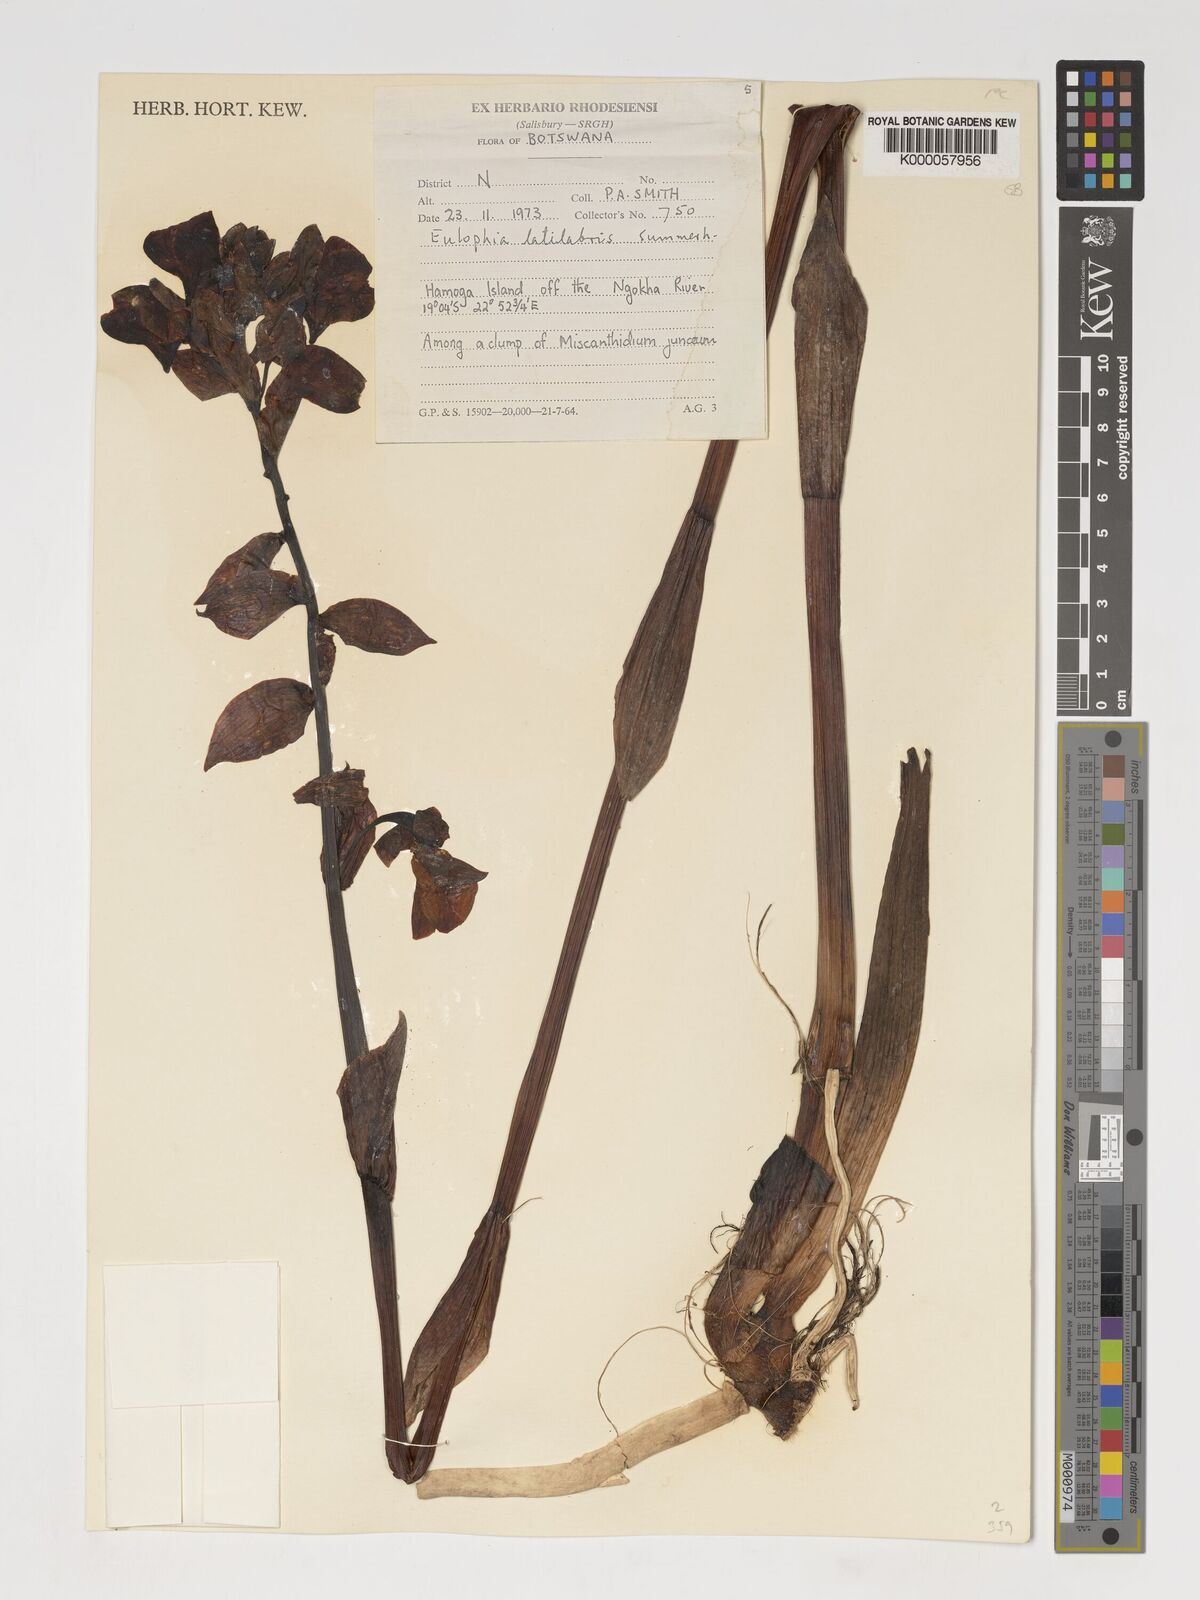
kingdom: Plantae
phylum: Tracheophyta
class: Liliopsida
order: Asparagales
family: Orchidaceae
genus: Eulophia
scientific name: Eulophia latilabris
